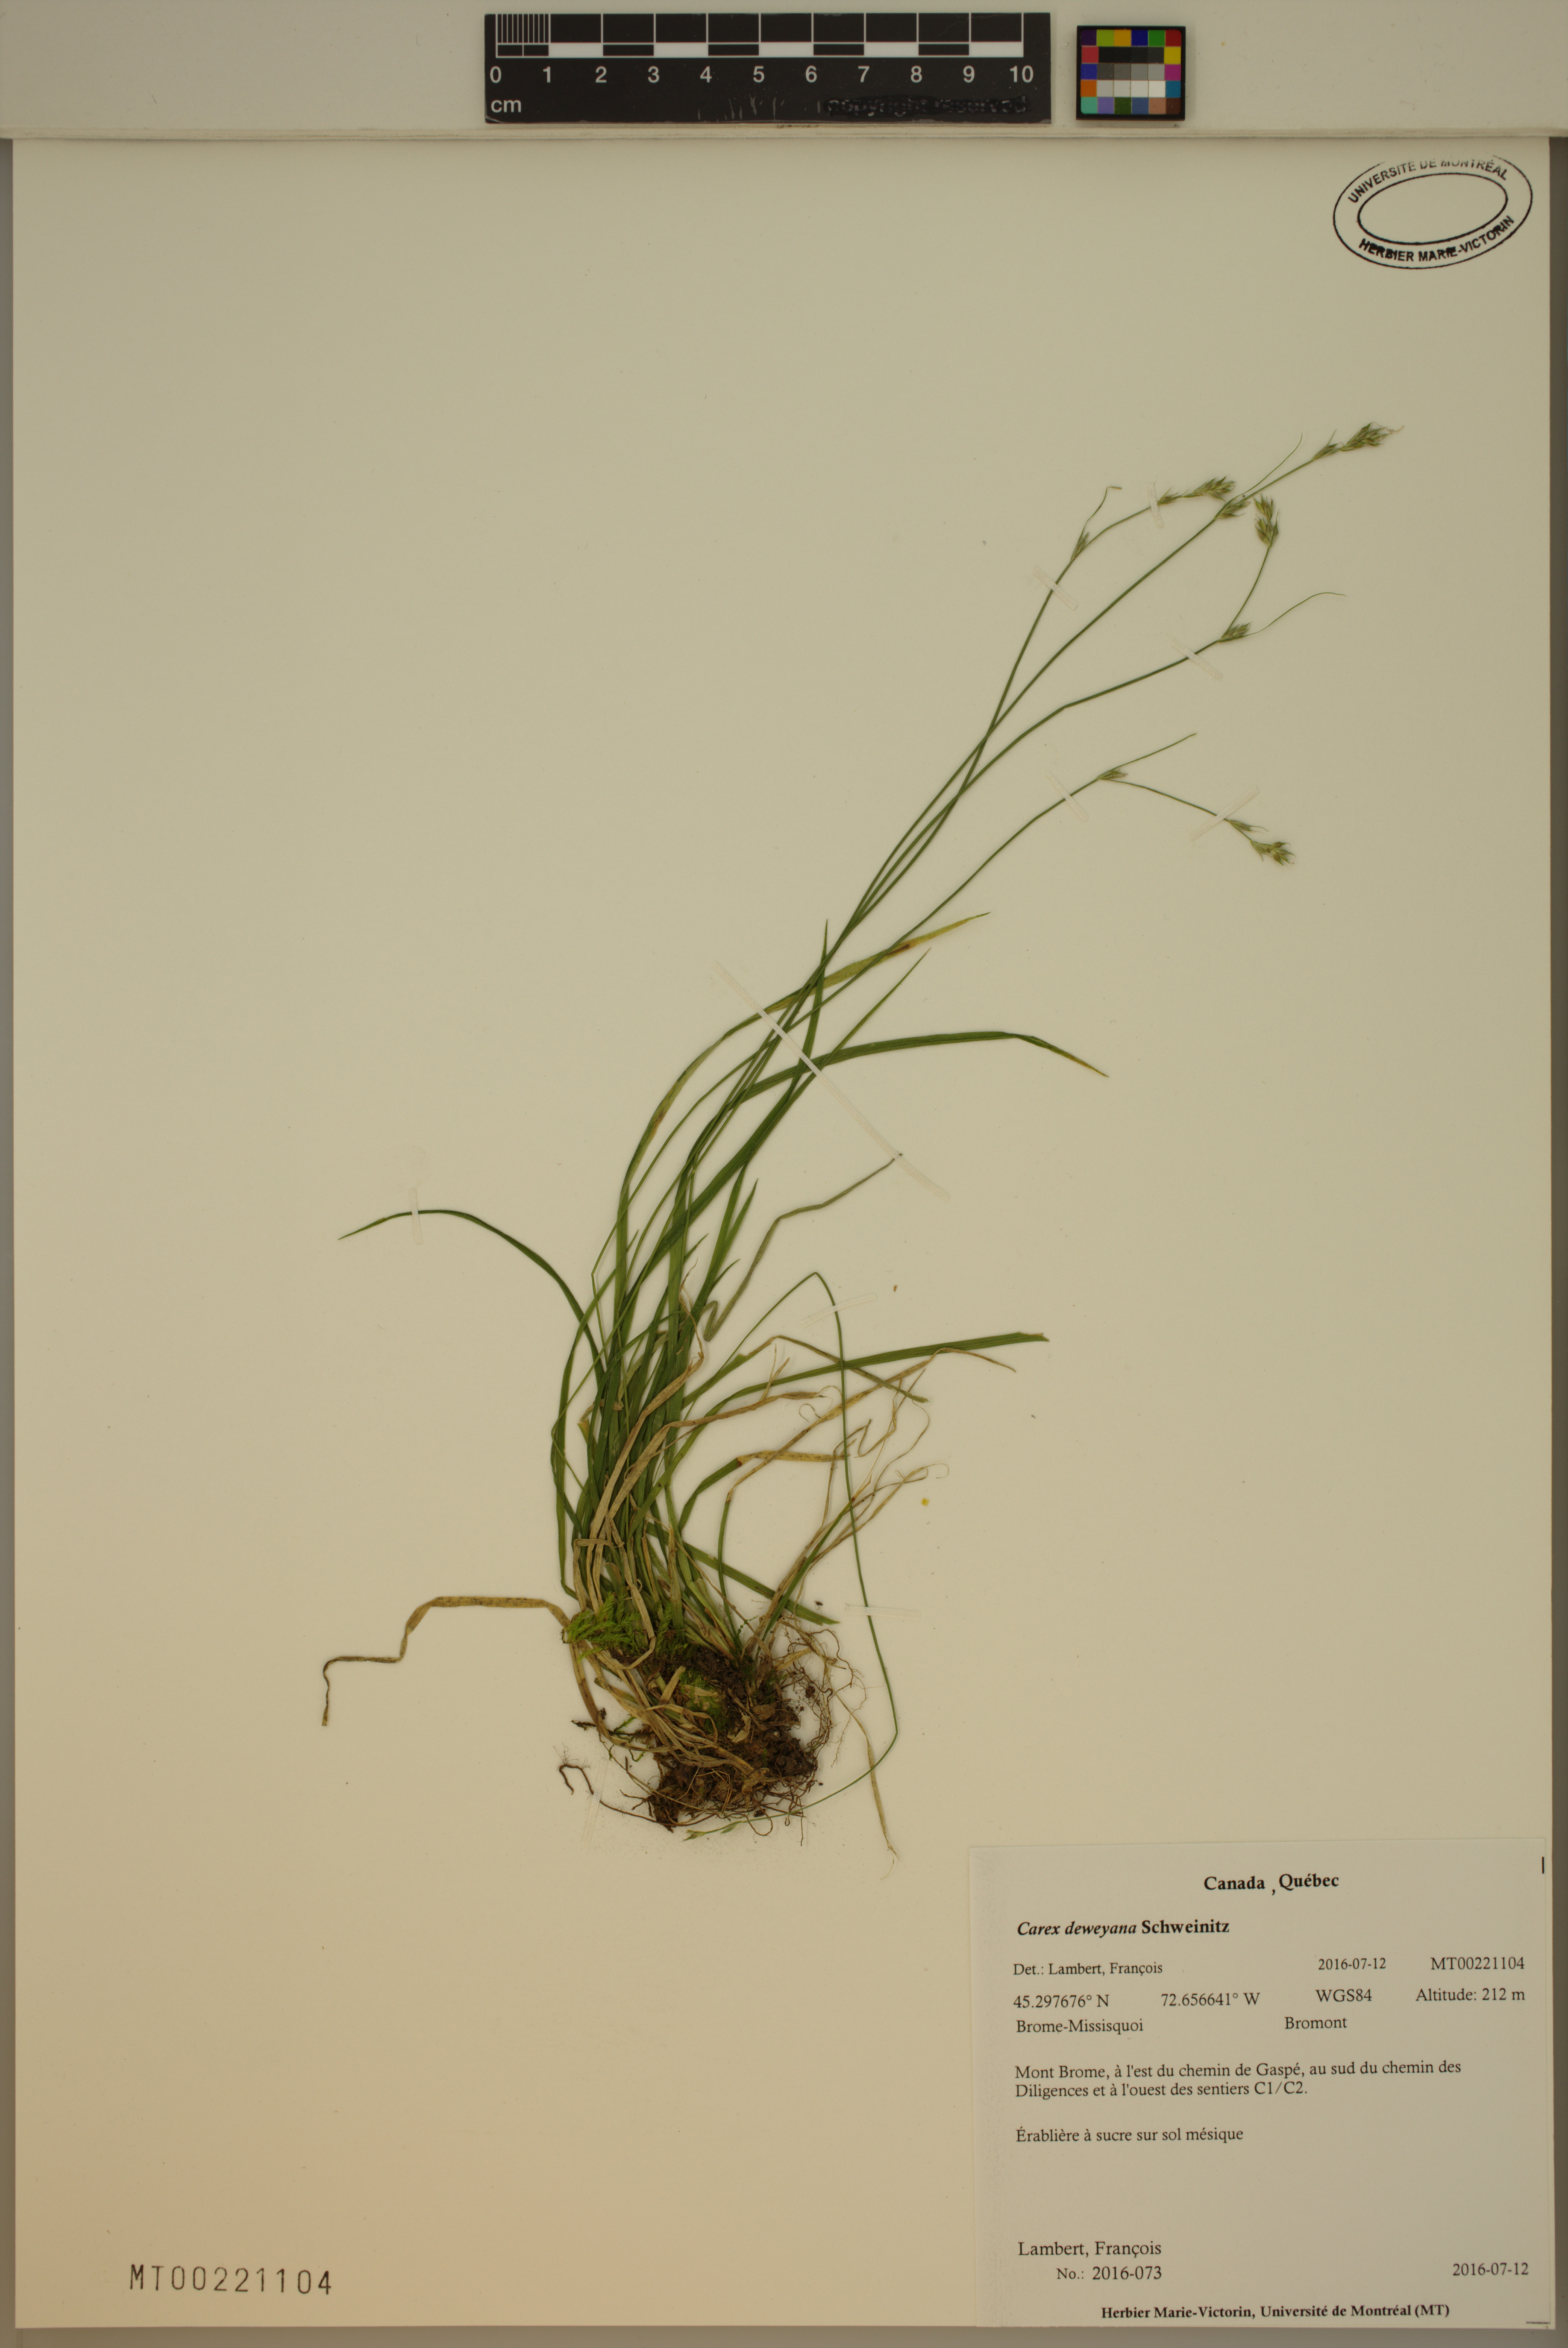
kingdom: Plantae
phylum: Tracheophyta
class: Liliopsida
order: Poales
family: Cyperaceae
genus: Carex
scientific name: Carex deweyana
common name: Dewey's sedge
